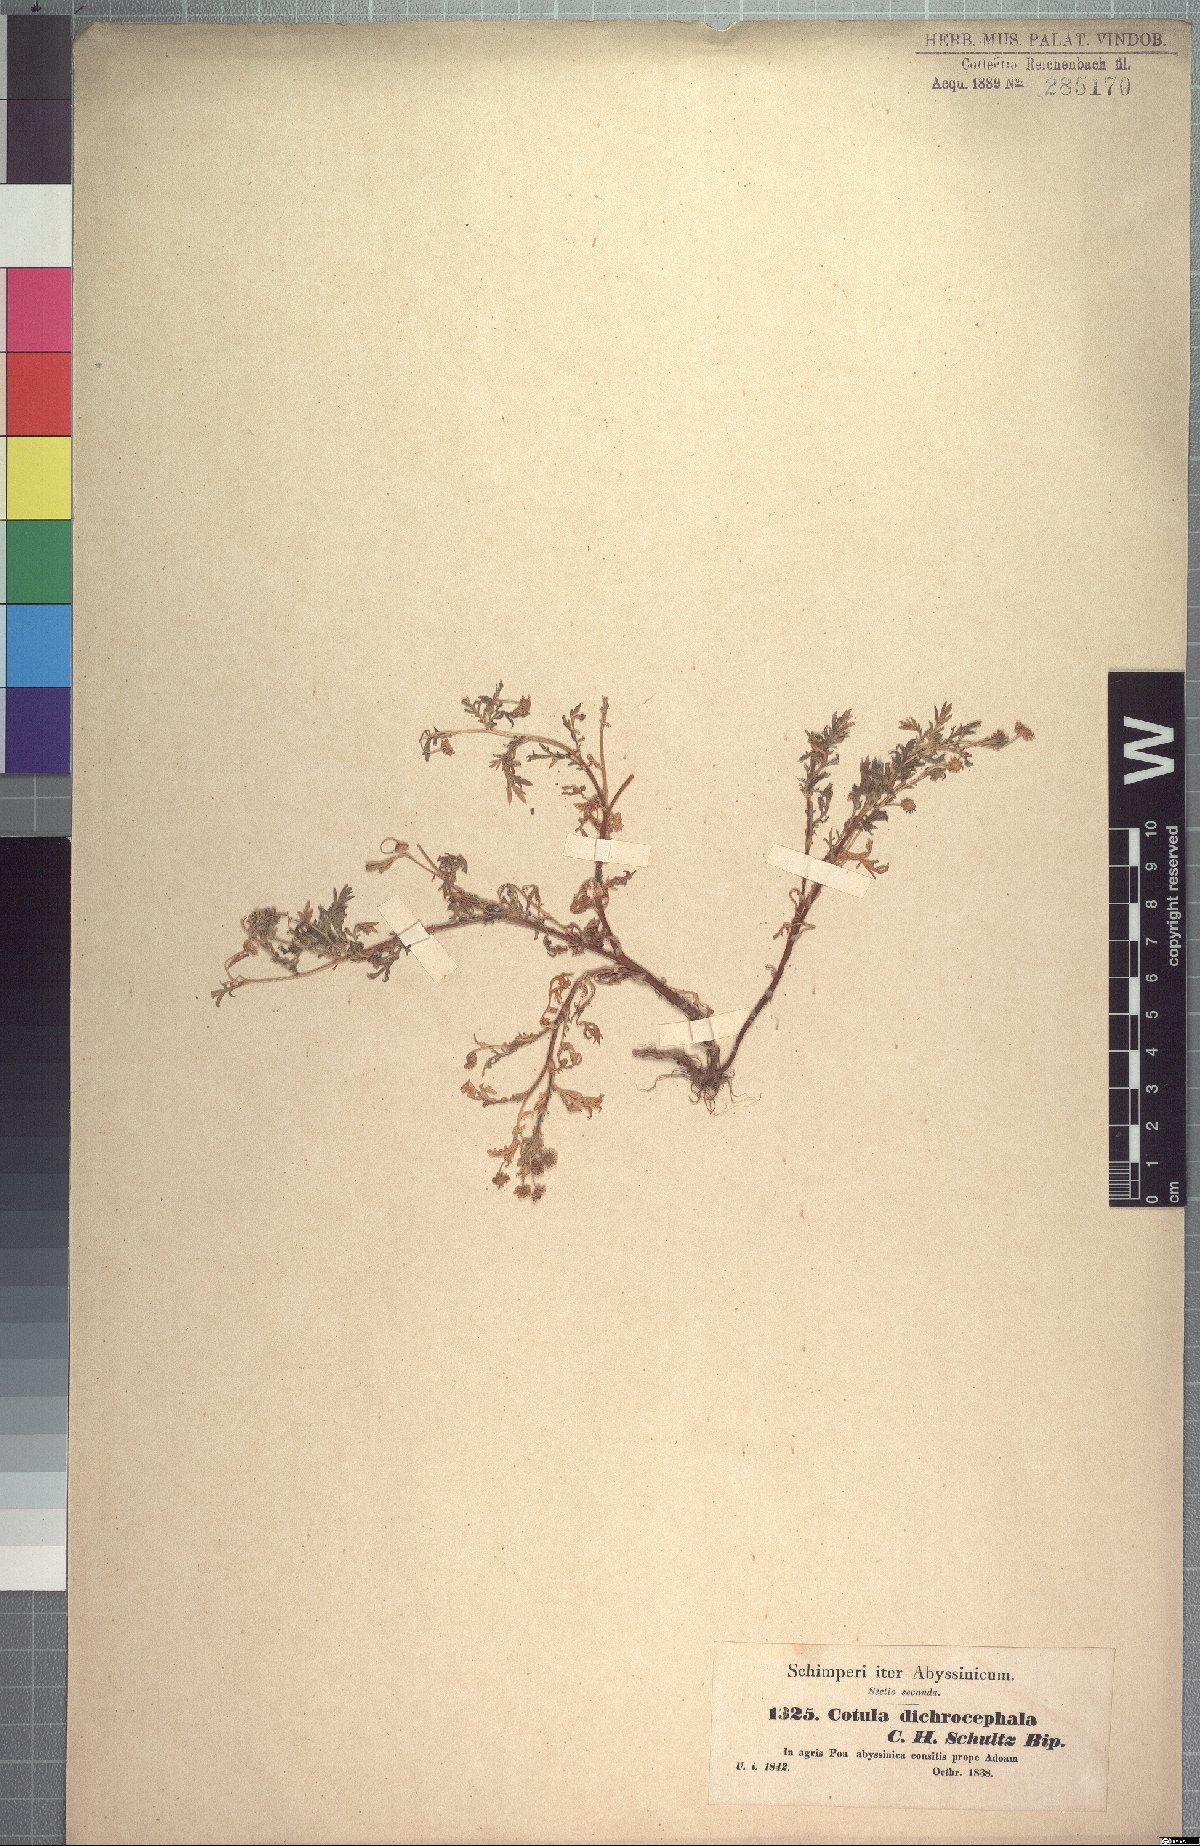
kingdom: Plantae
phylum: Tracheophyta
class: Magnoliopsida
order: Asterales
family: Asteraceae
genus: Cotula
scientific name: Cotula anthemoides
